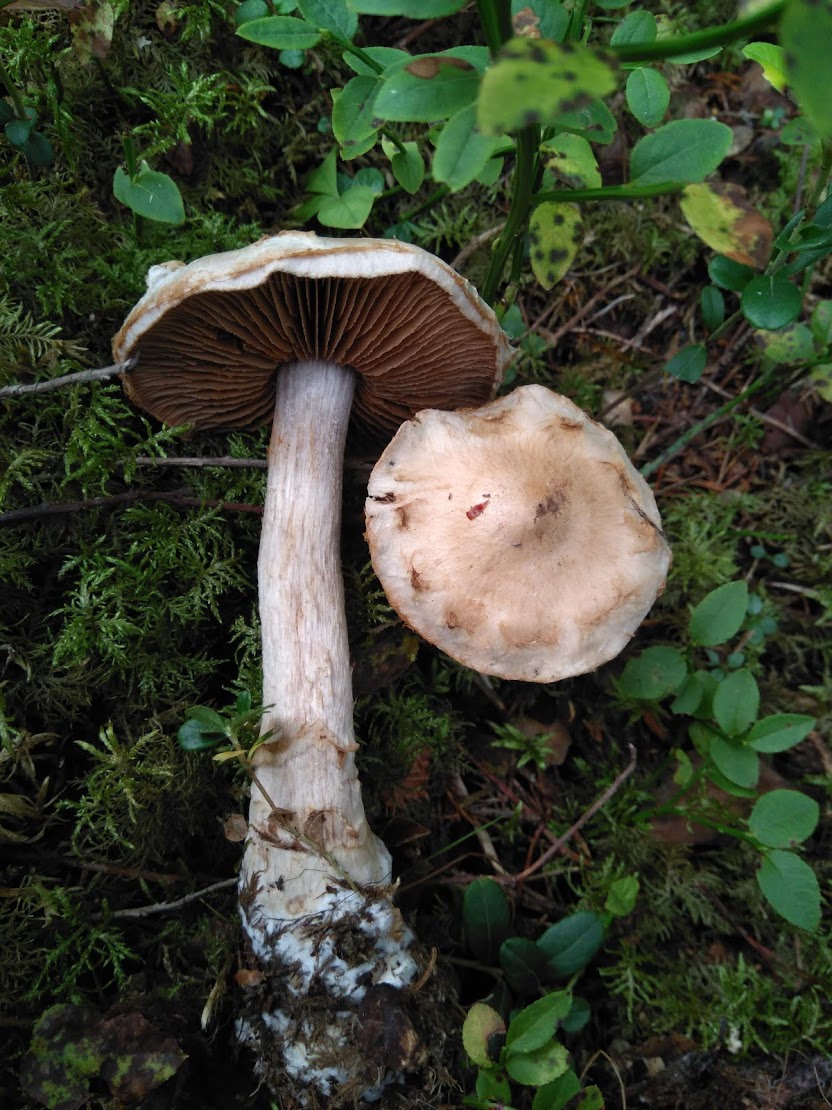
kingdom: Fungi
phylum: Basidiomycota
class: Agaricomycetes
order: Agaricales
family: Cortinariaceae
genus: Cortinarius
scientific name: Cortinarius rusticus
